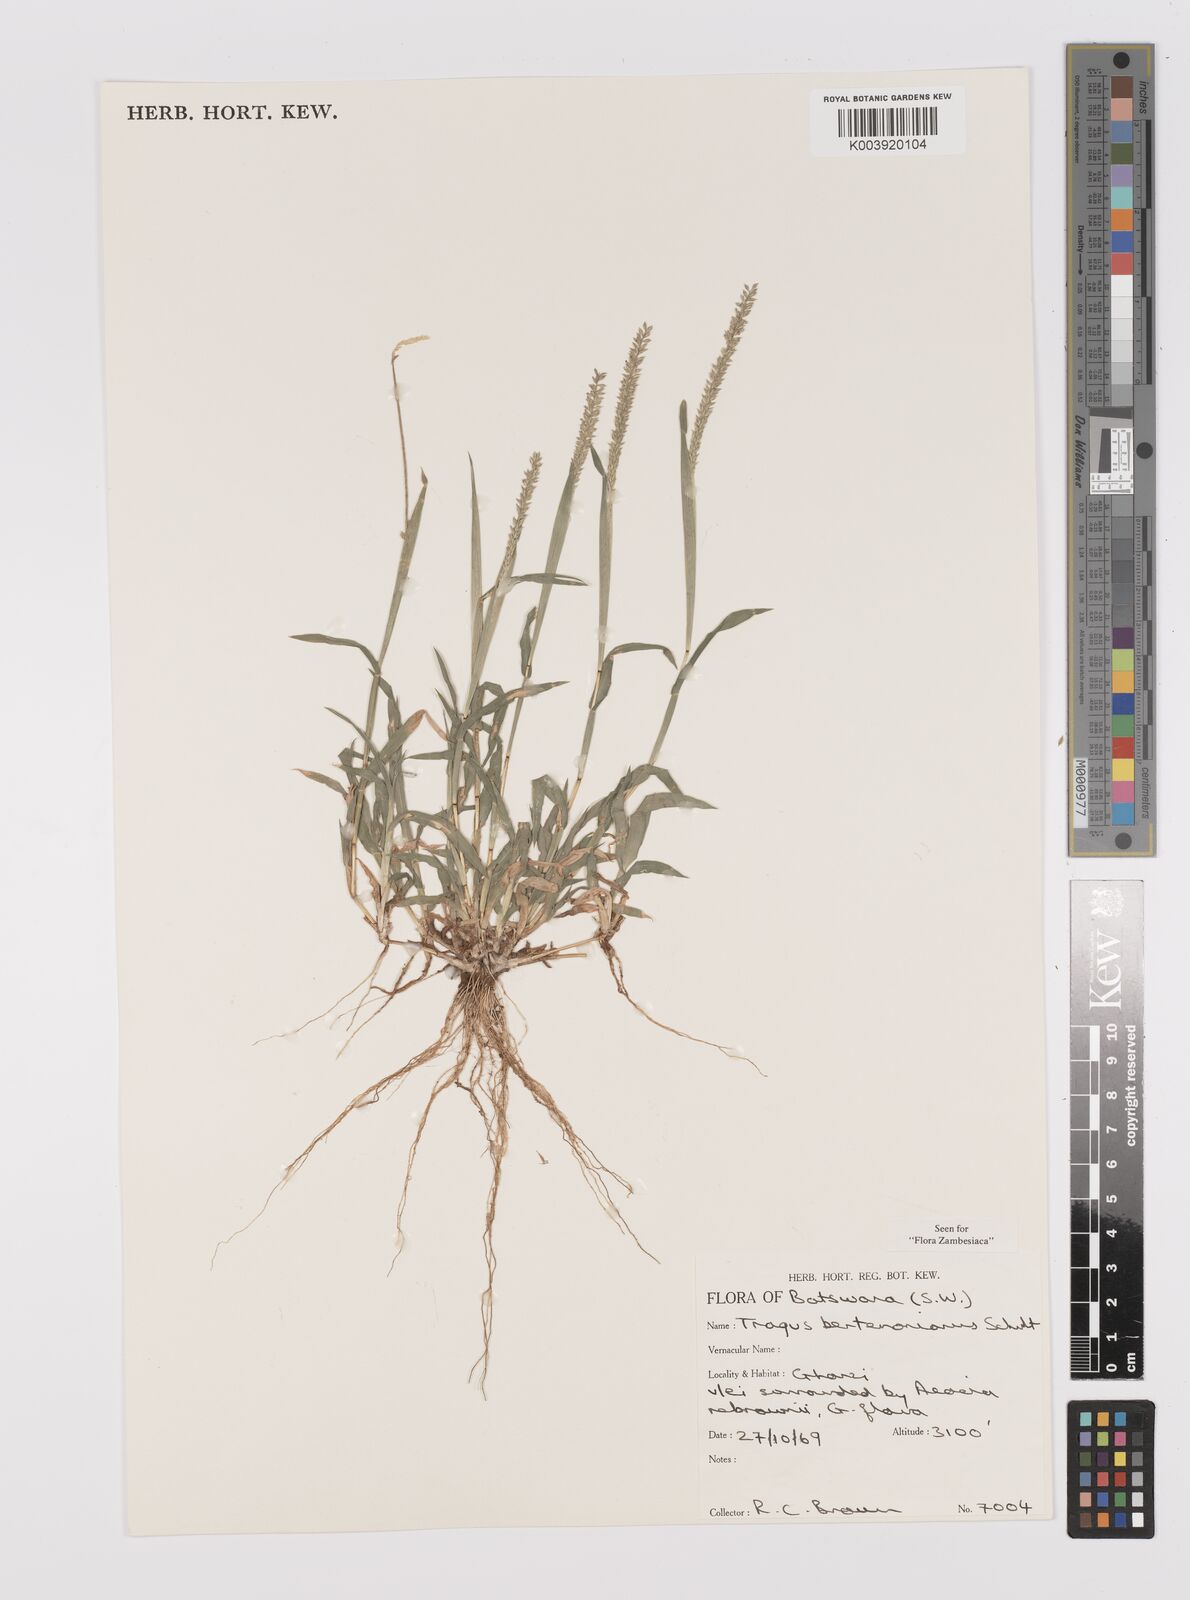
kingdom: Plantae
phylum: Tracheophyta
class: Liliopsida
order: Poales
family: Poaceae
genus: Tragus
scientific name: Tragus berteronianus
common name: African bur-grass
